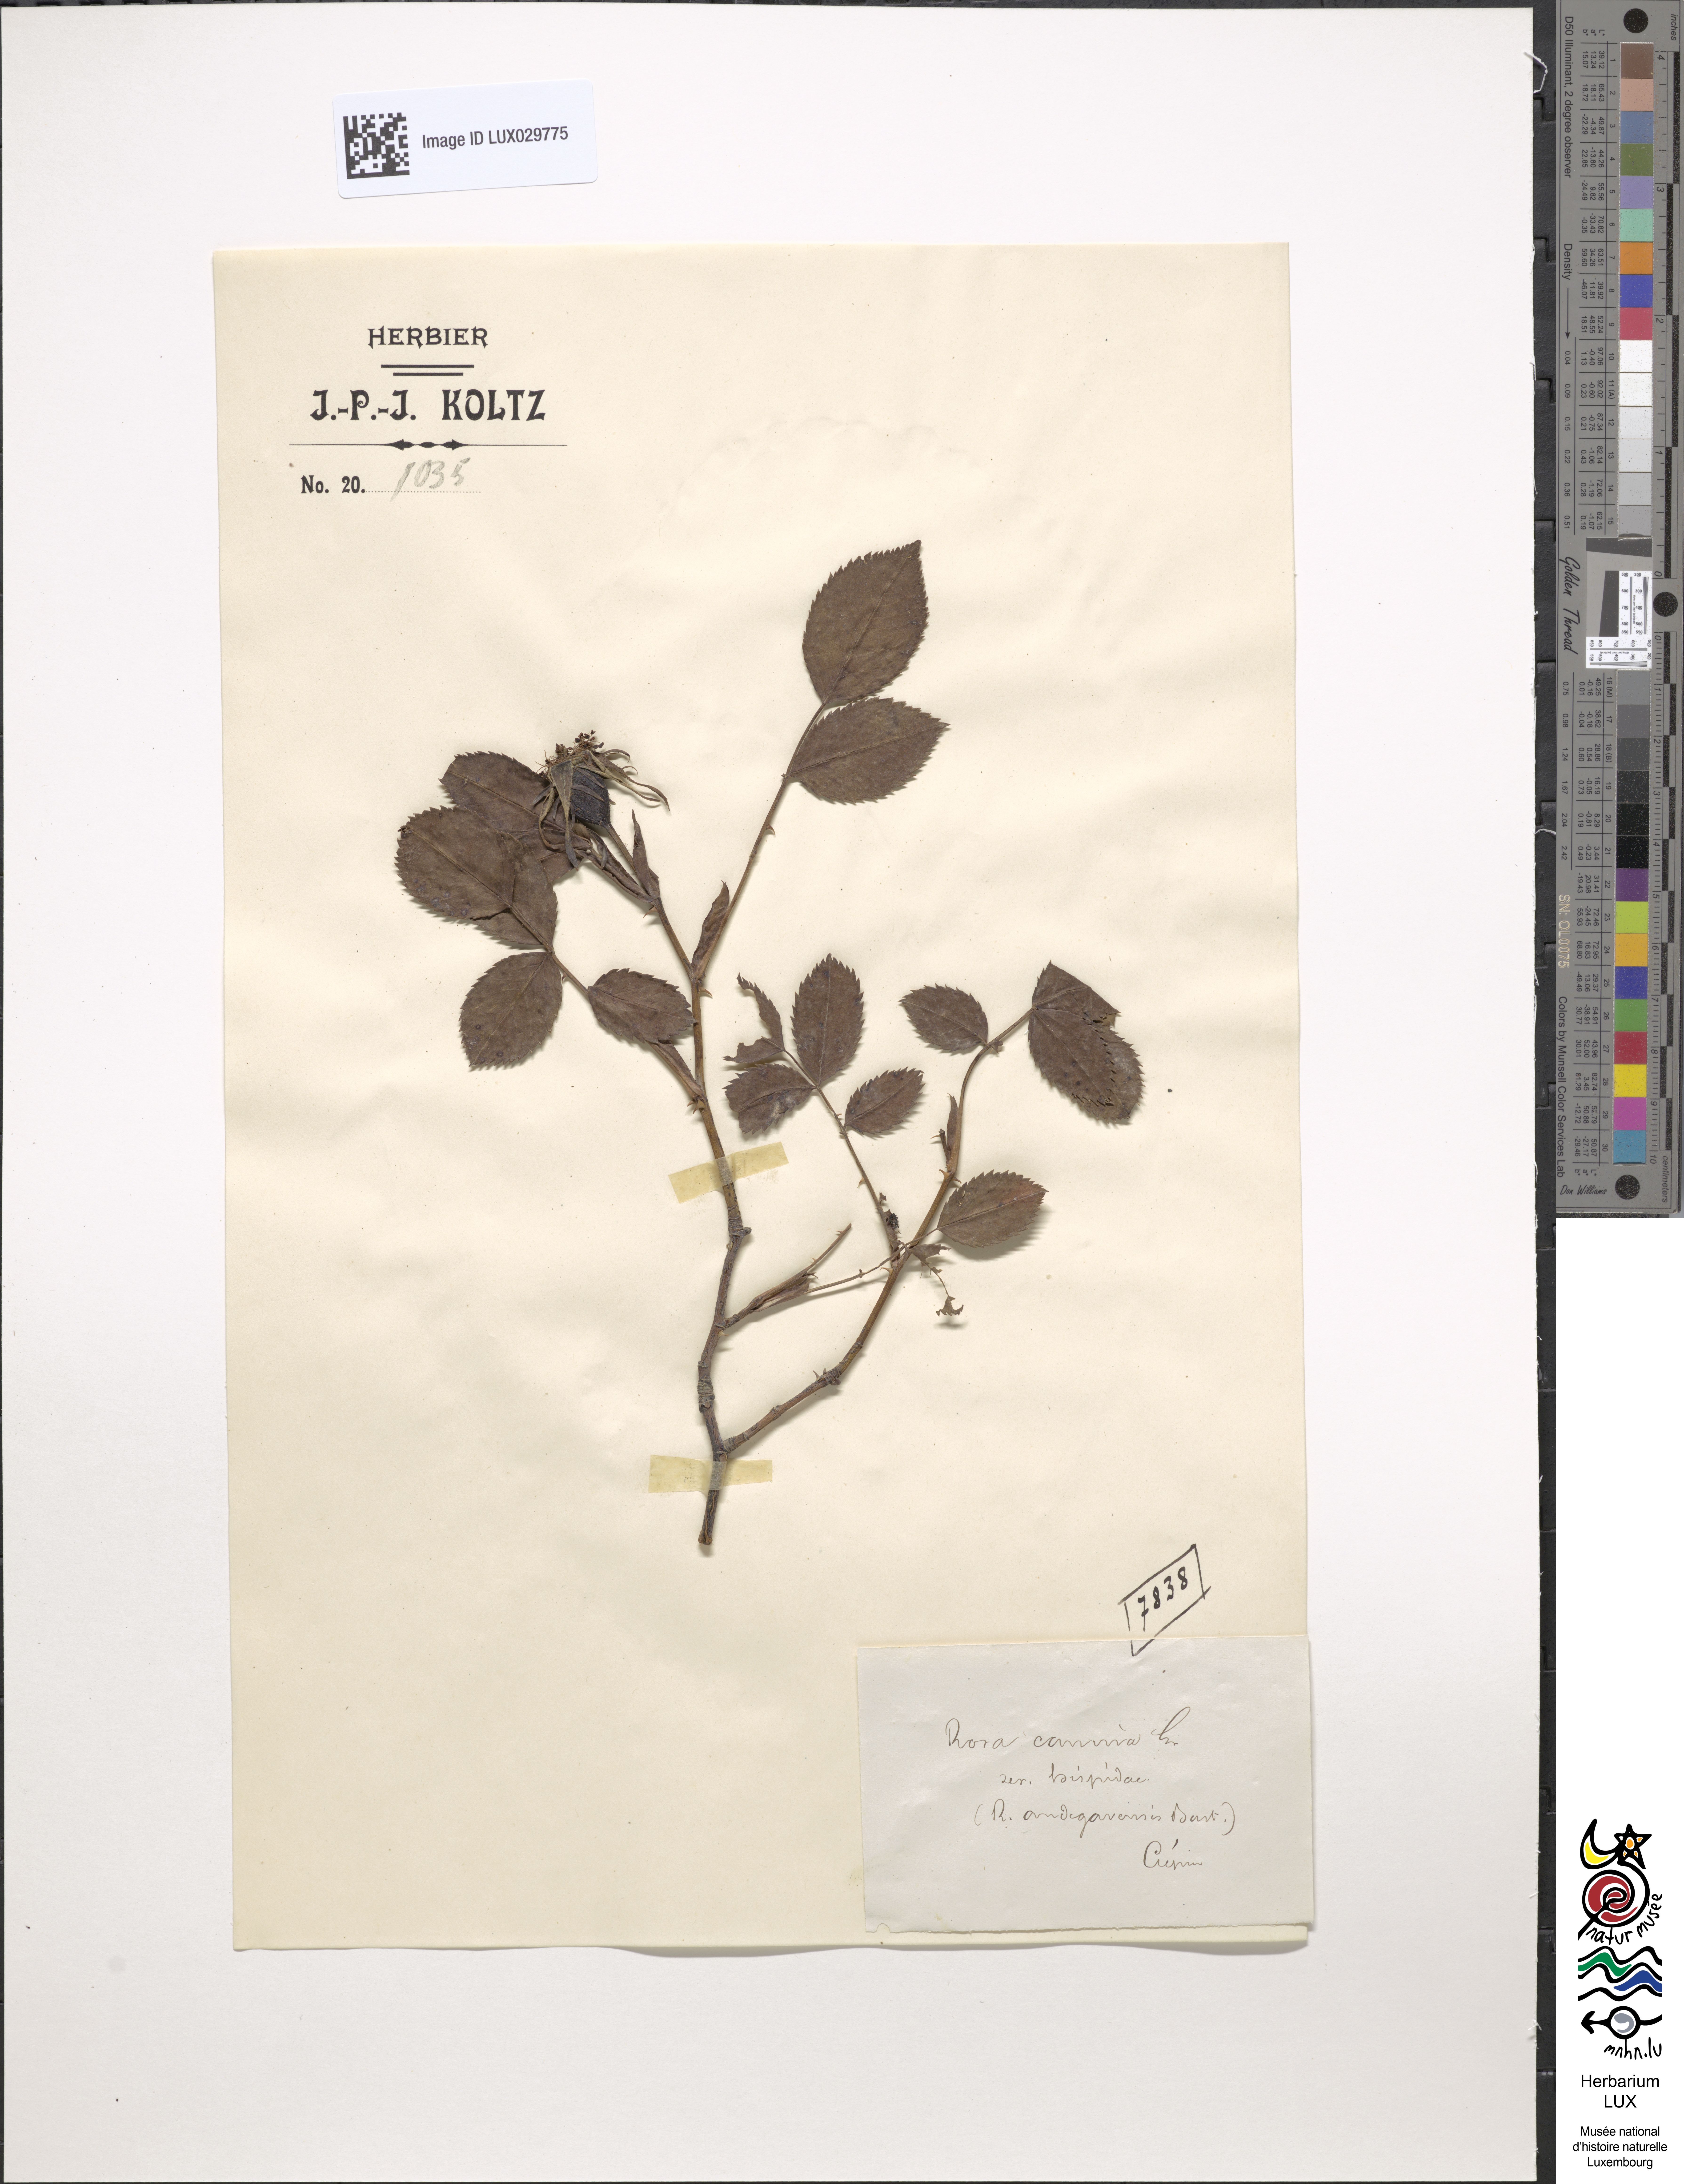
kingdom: Plantae
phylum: Tracheophyta
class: Magnoliopsida
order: Rosales
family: Rosaceae
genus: Rosa
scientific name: Rosa canina
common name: Dog rose
